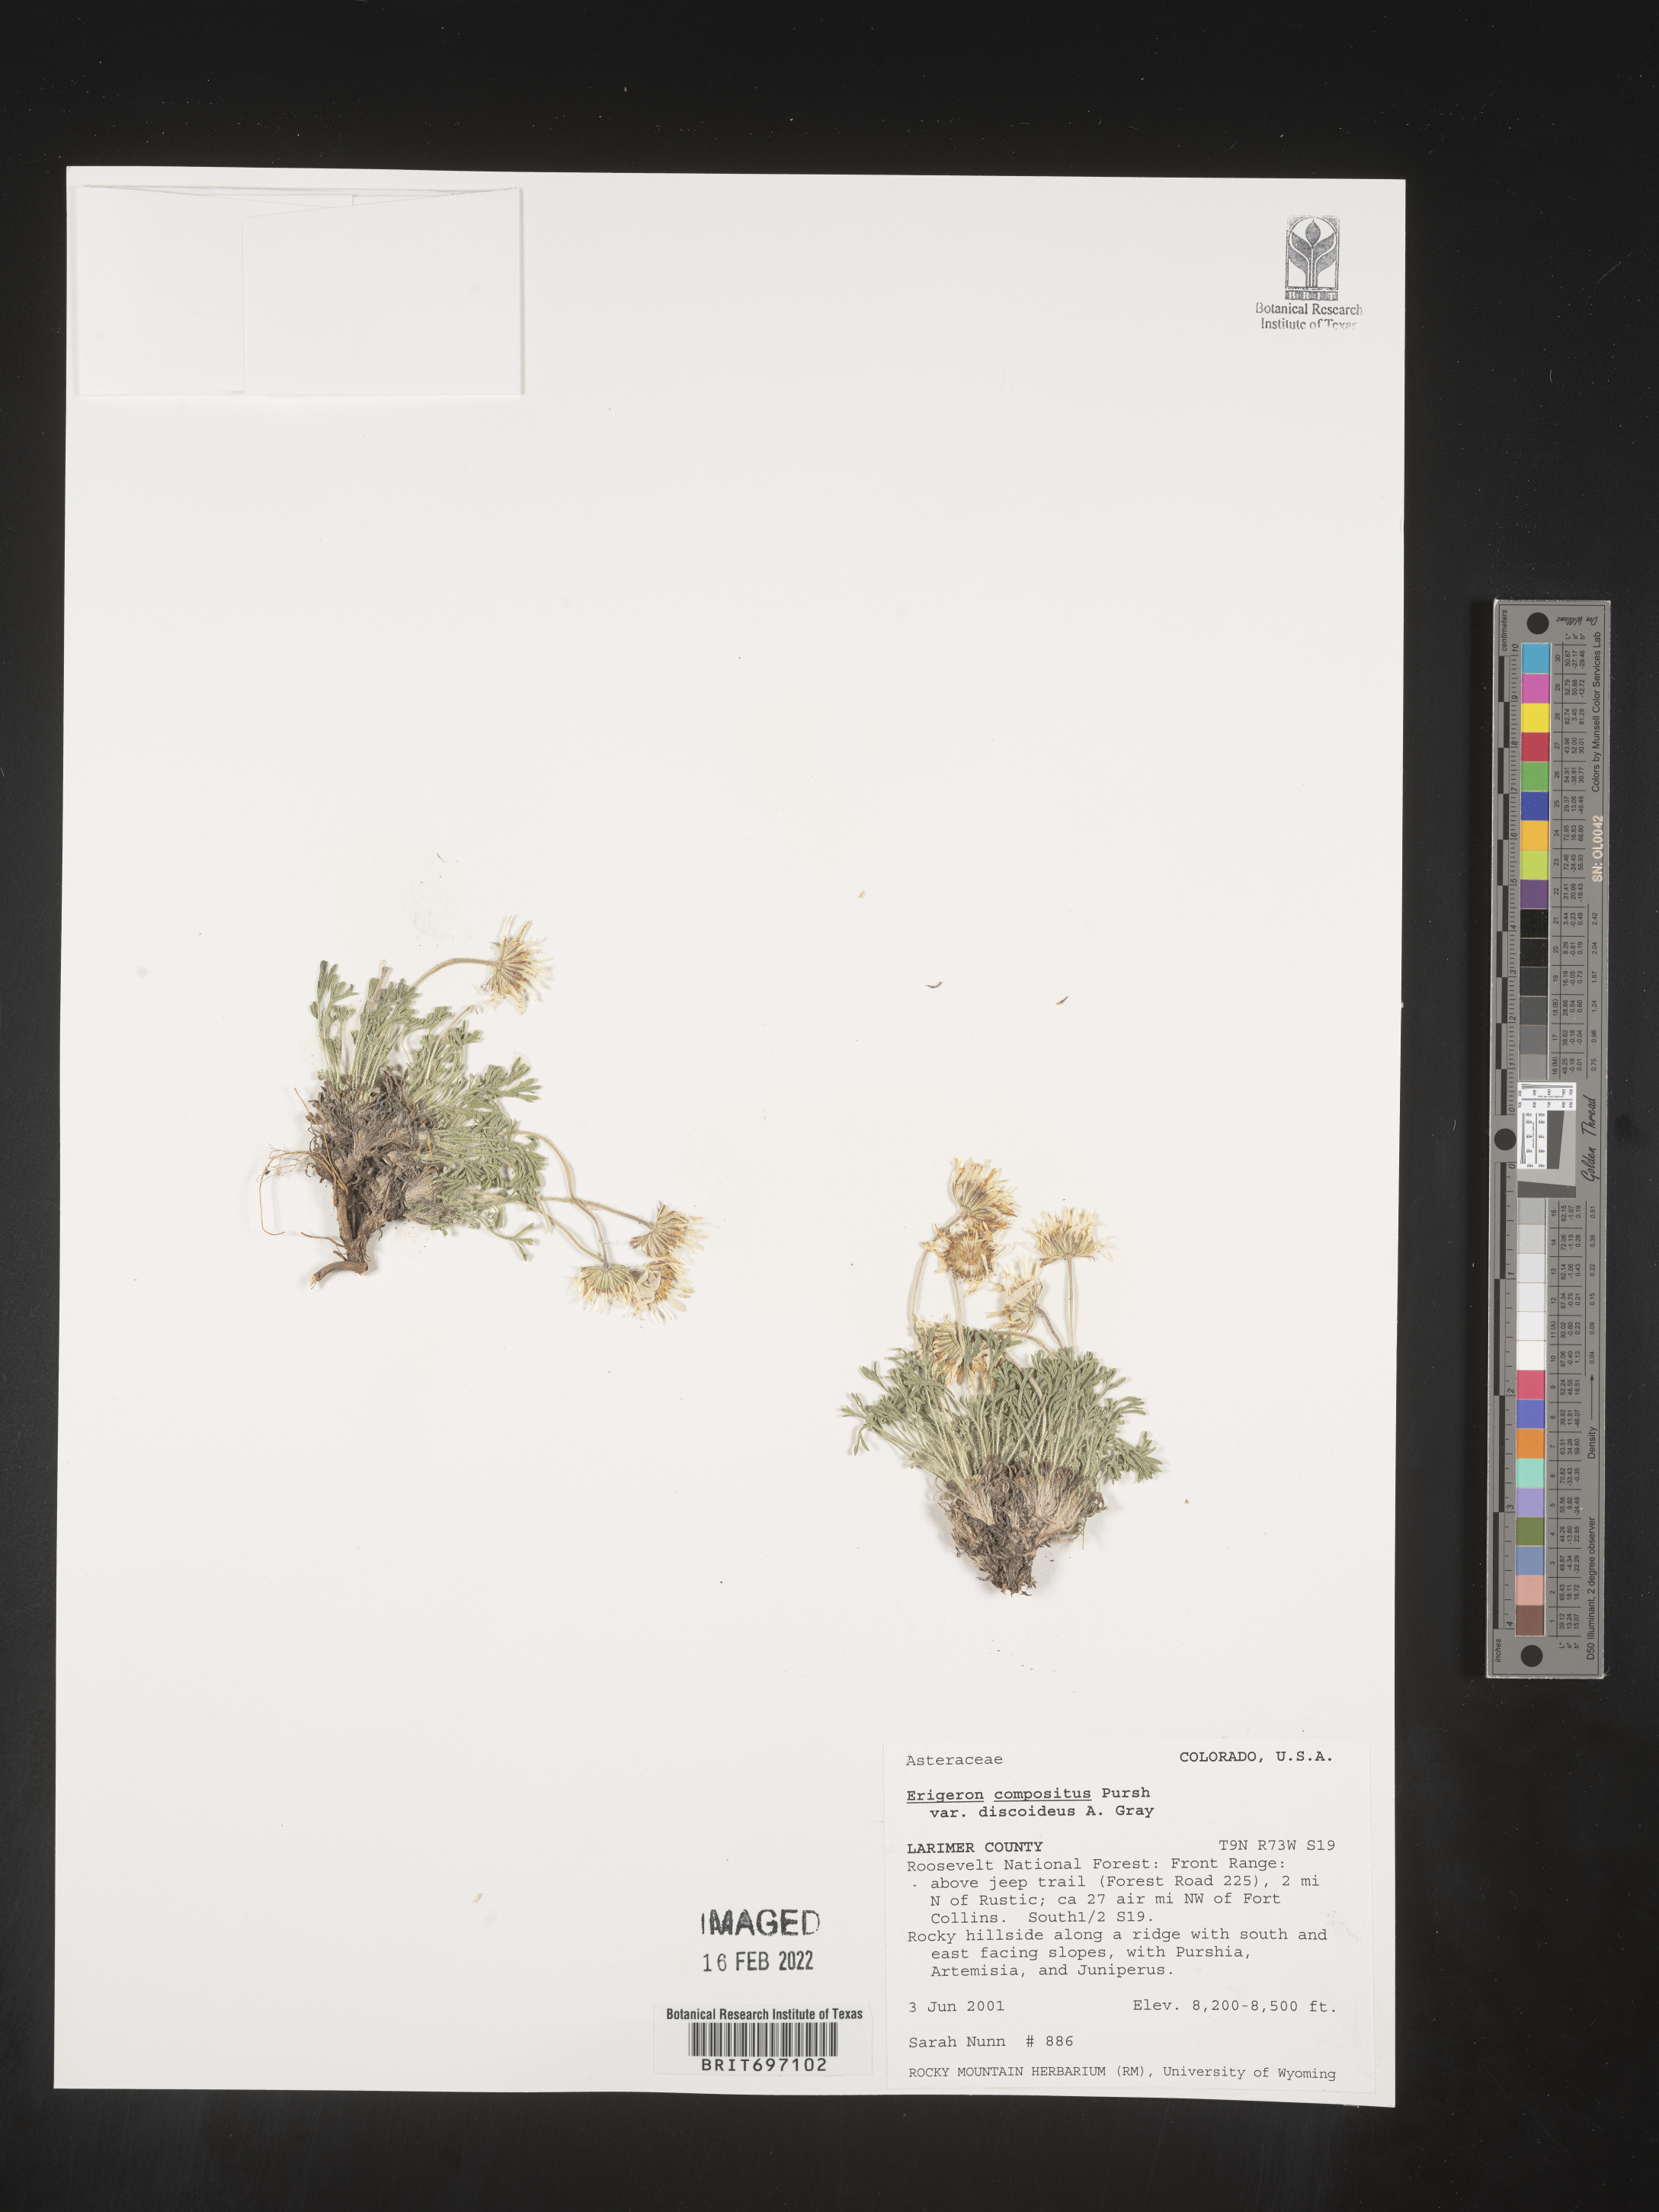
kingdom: Plantae
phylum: Tracheophyta
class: Magnoliopsida
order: Asterales
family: Asteraceae
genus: Erigeron
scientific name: Erigeron compositus
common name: Dwarf mountain fleabane
